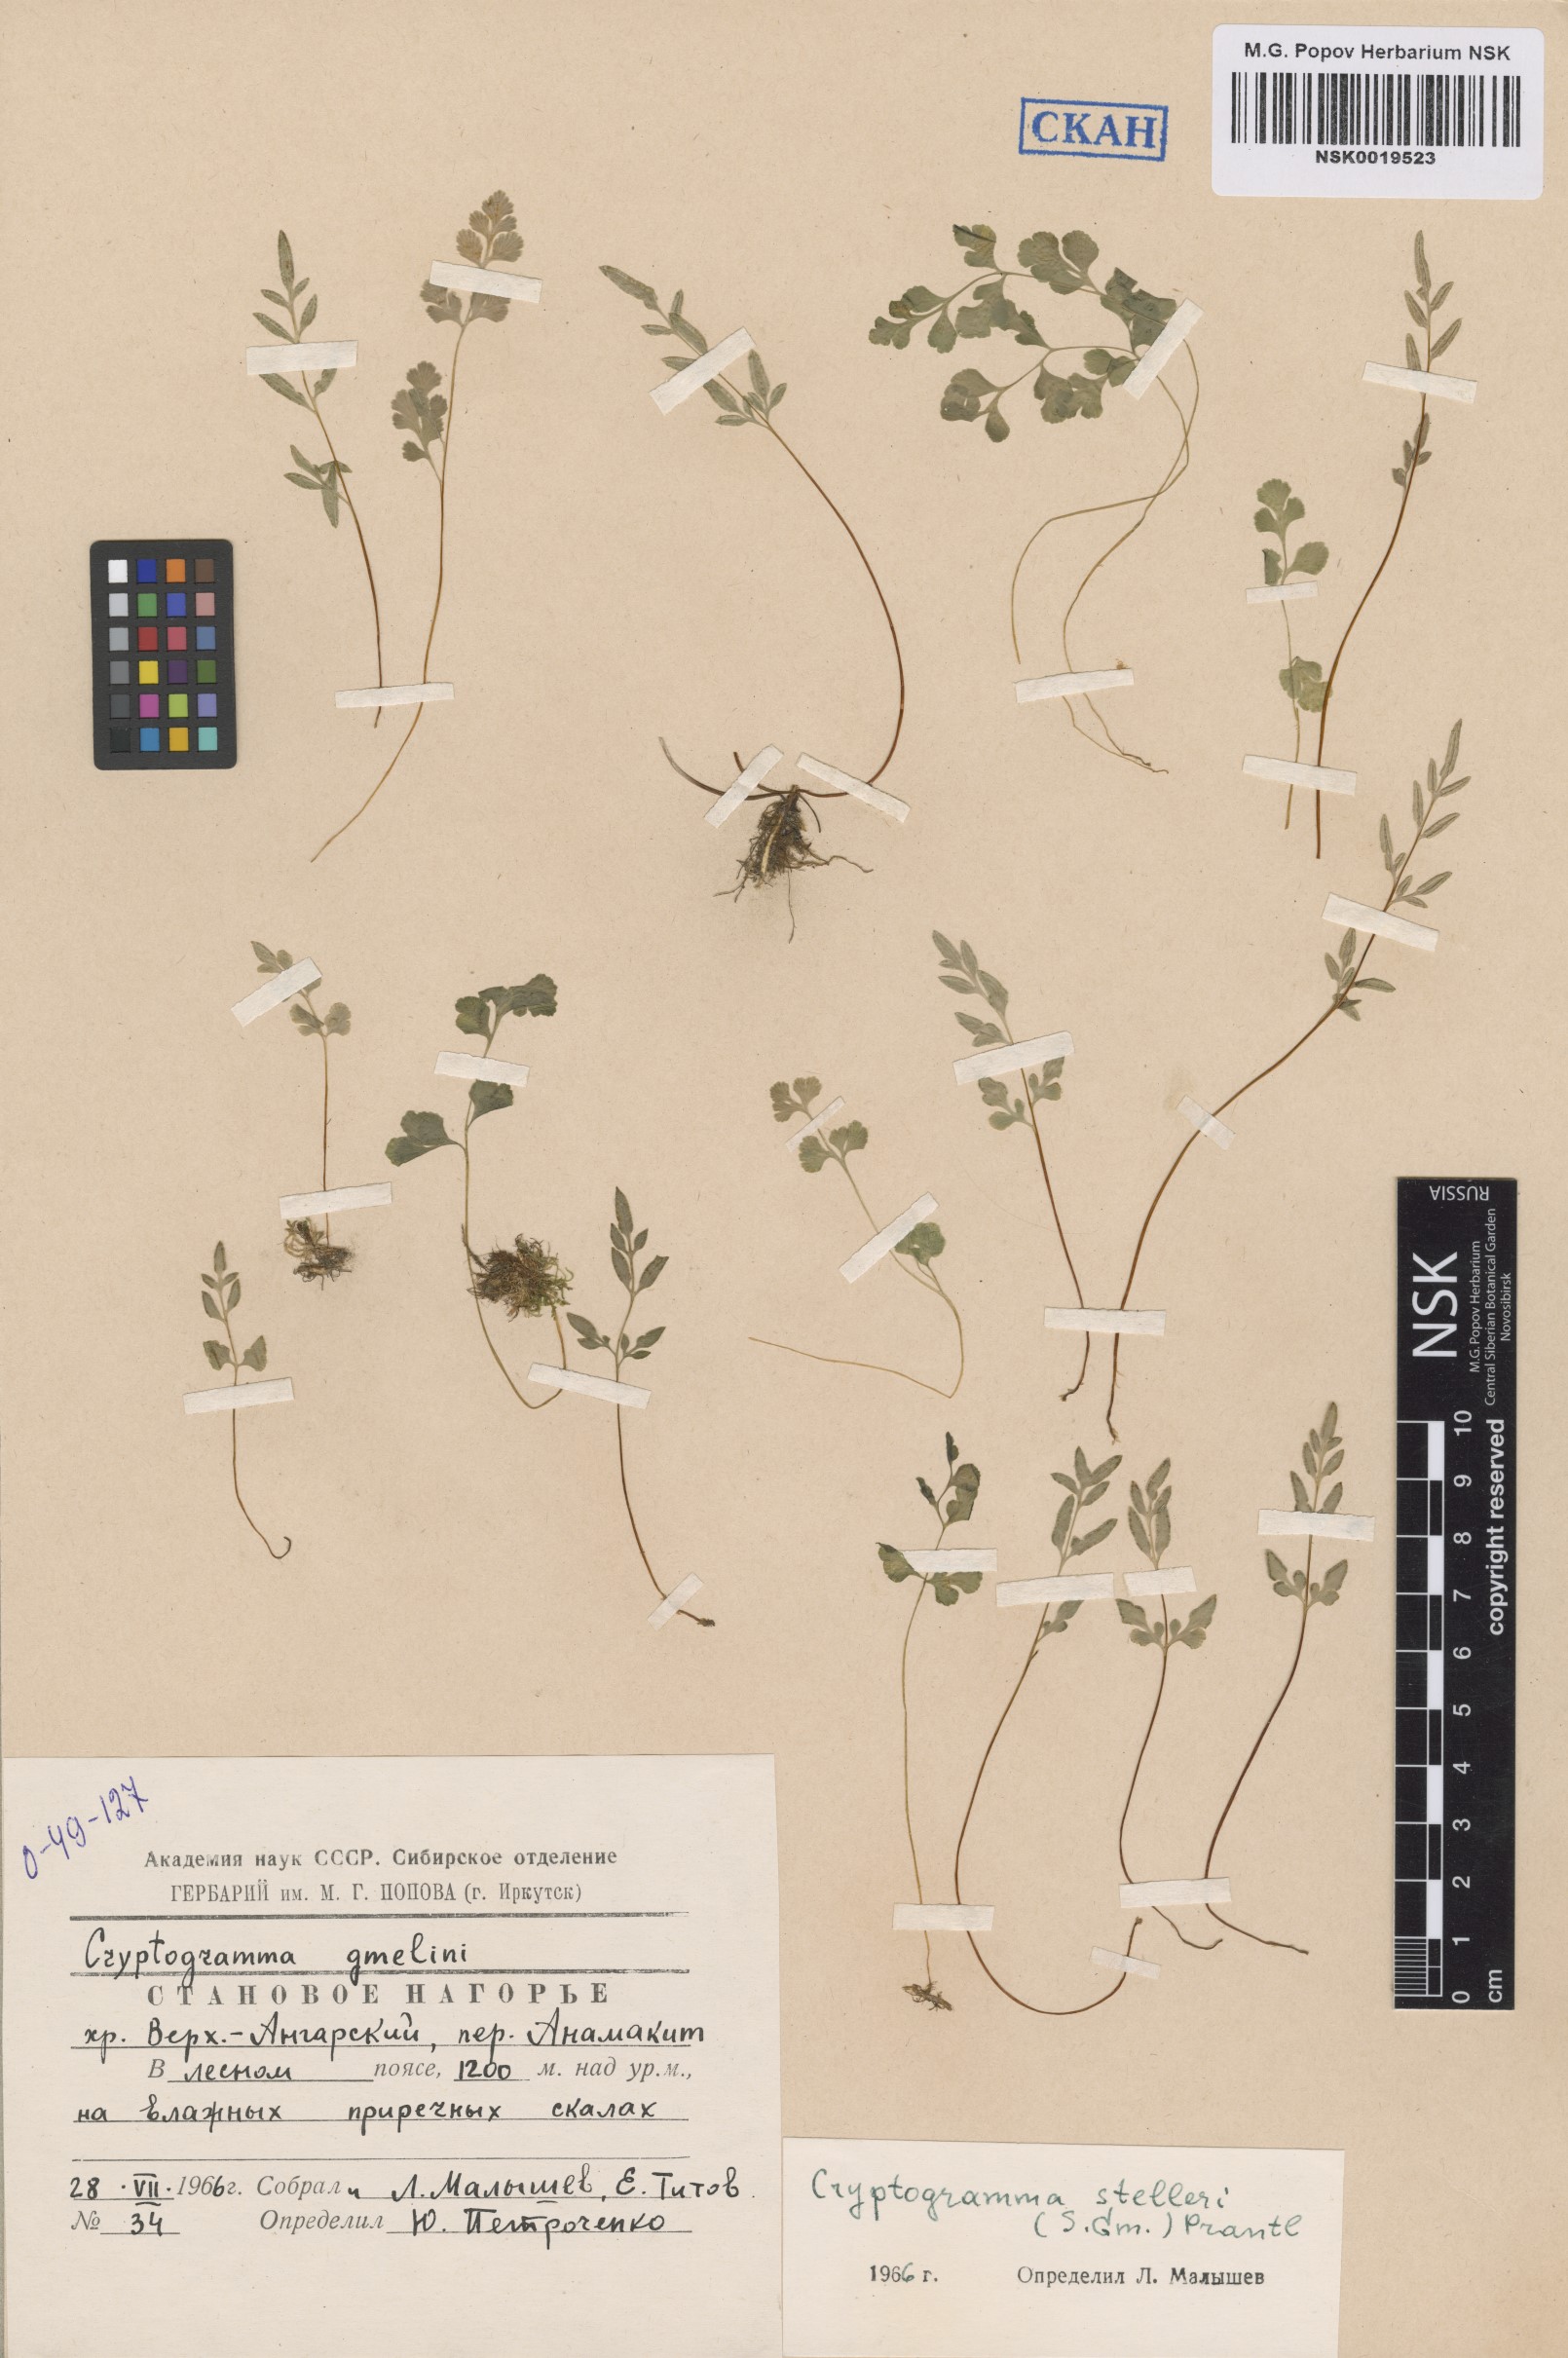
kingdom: Plantae
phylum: Tracheophyta
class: Polypodiopsida
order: Polypodiales
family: Pteridaceae
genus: Cryptogramma
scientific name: Cryptogramma stelleri
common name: Cliff-brake
